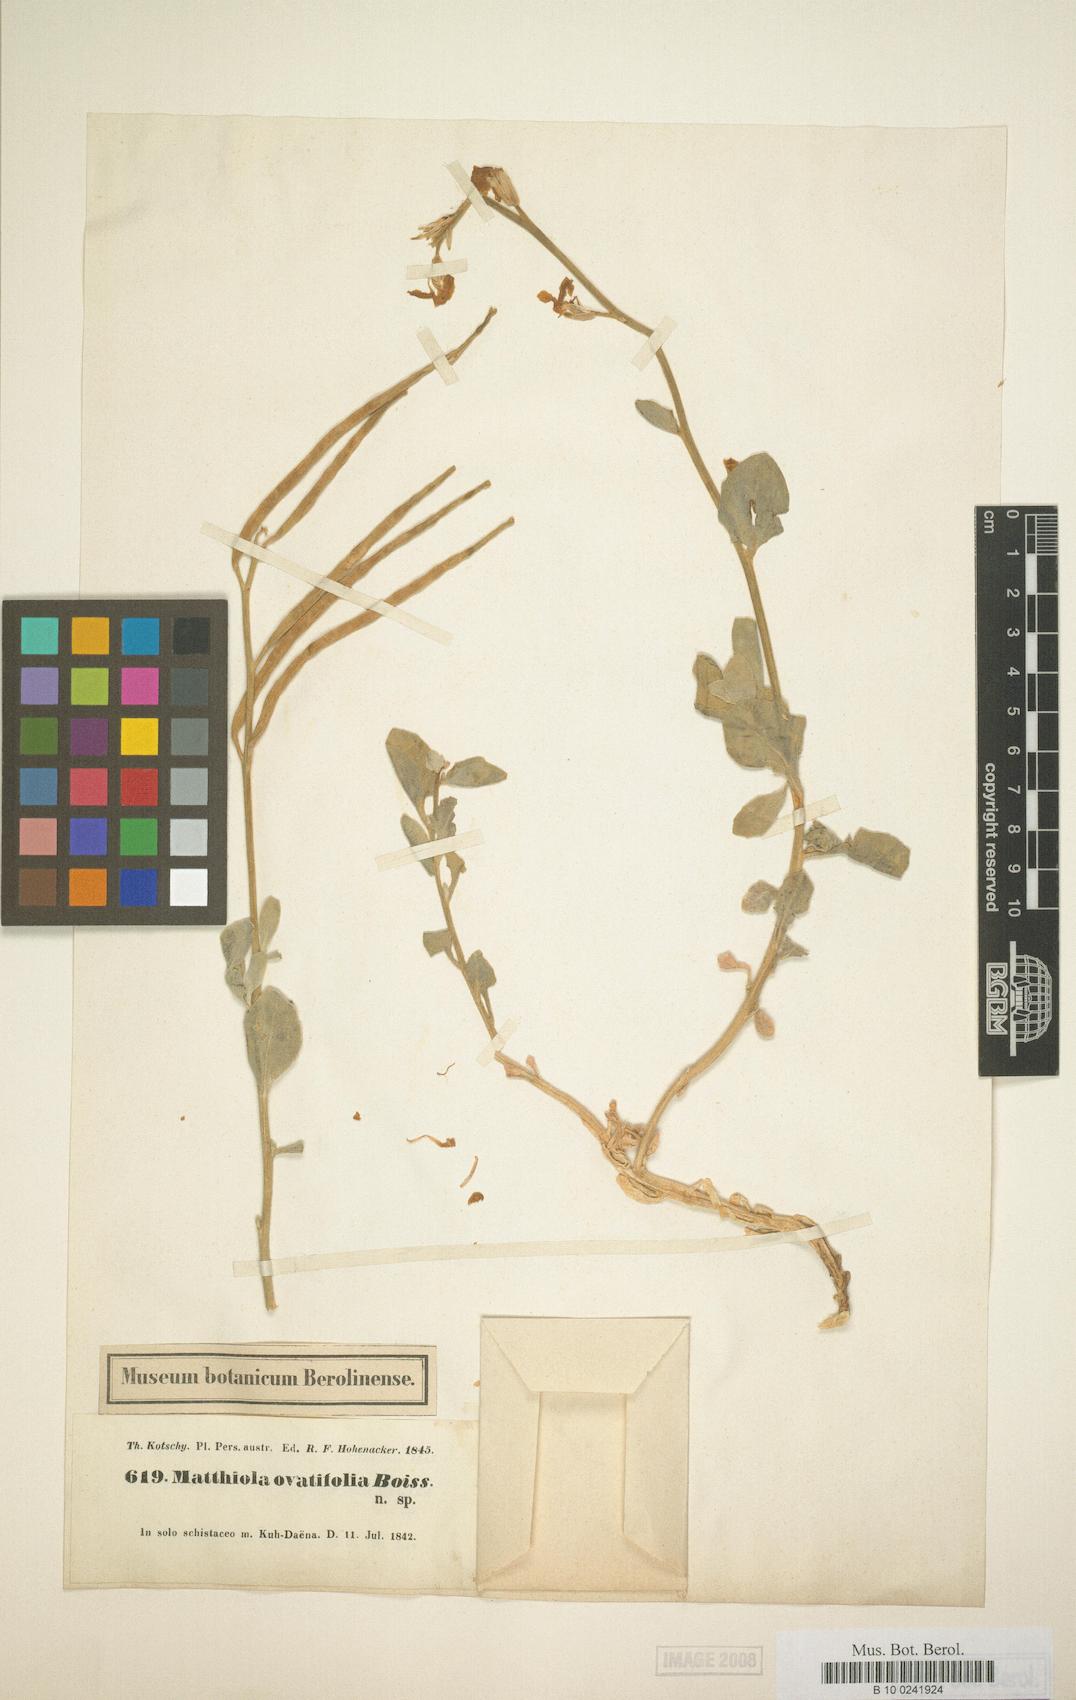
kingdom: Plantae
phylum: Tracheophyta
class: Magnoliopsida
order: Brassicales
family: Brassicaceae
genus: Matthiola
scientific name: Matthiola ovatifolia
